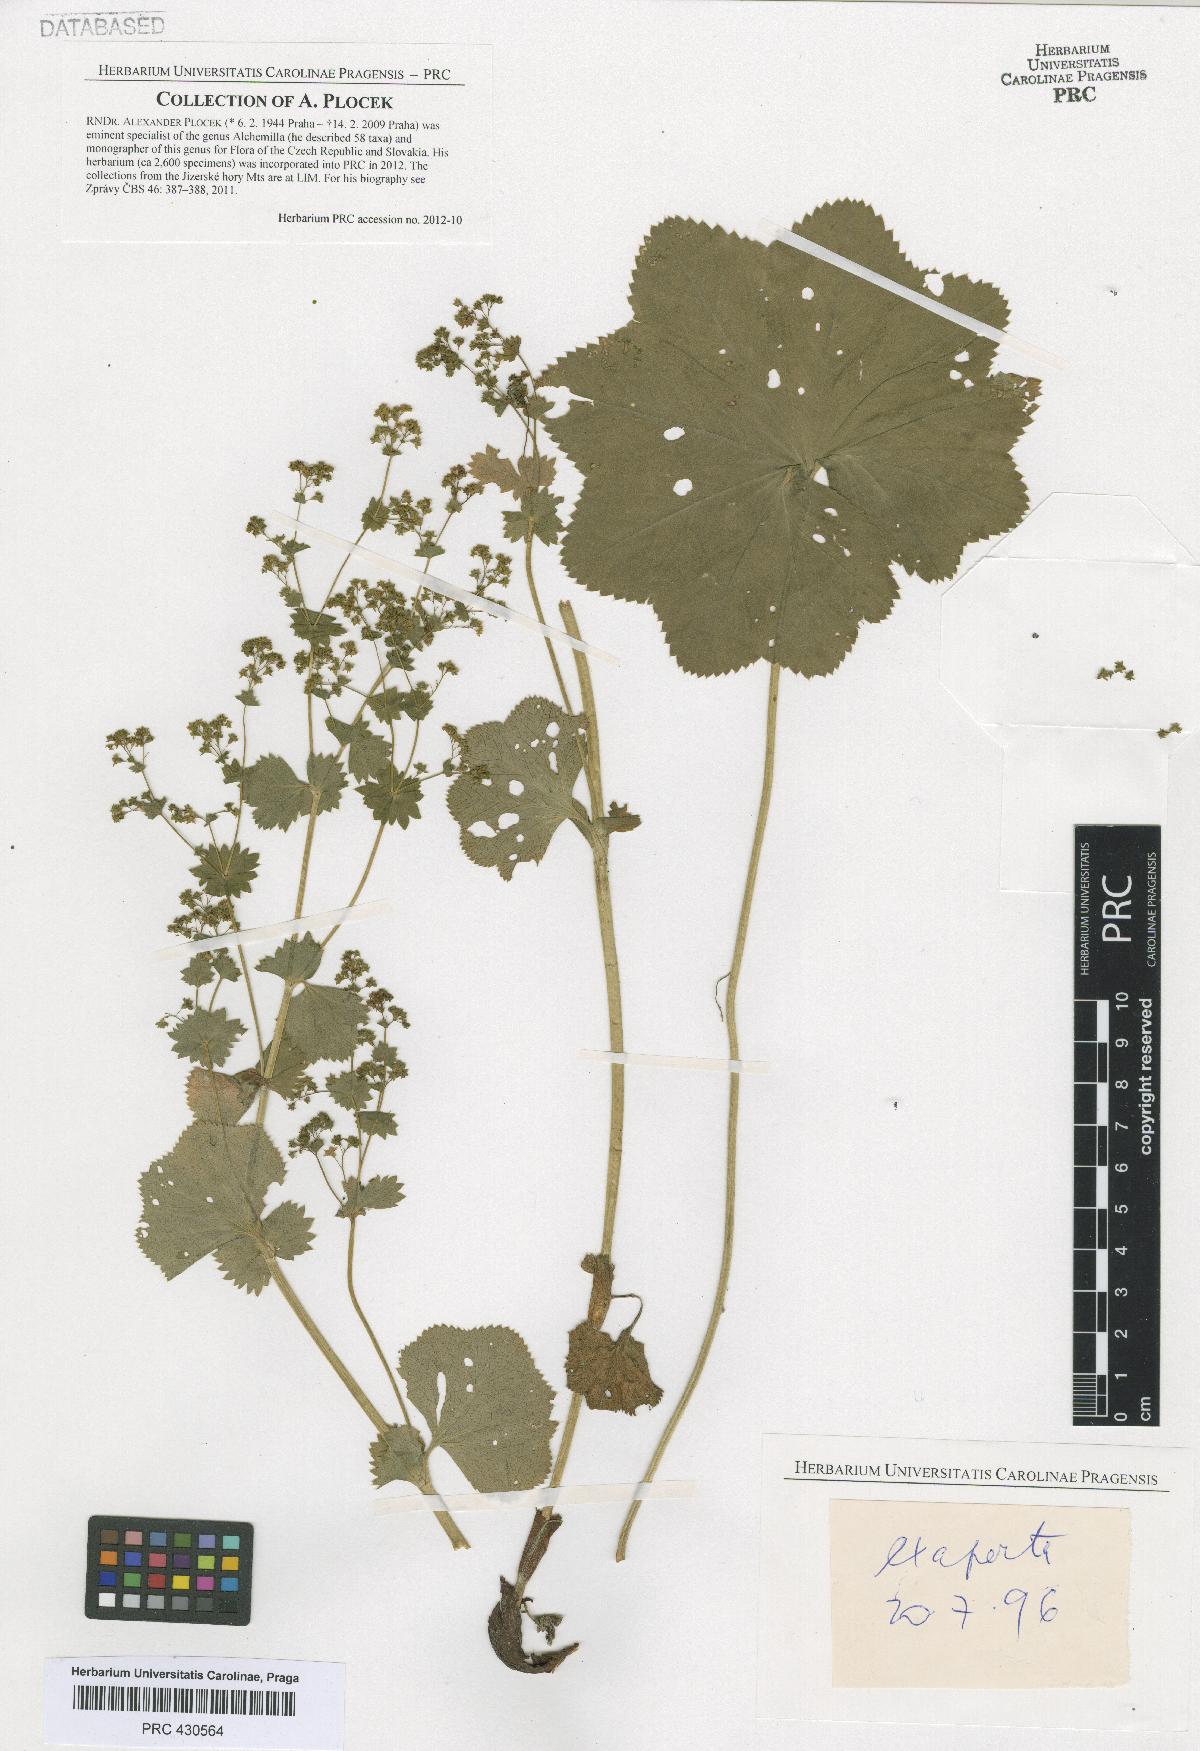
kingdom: Plantae
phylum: Tracheophyta
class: Magnoliopsida
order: Rosales
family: Rosaceae
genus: Alchemilla
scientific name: Alchemilla exaperta
